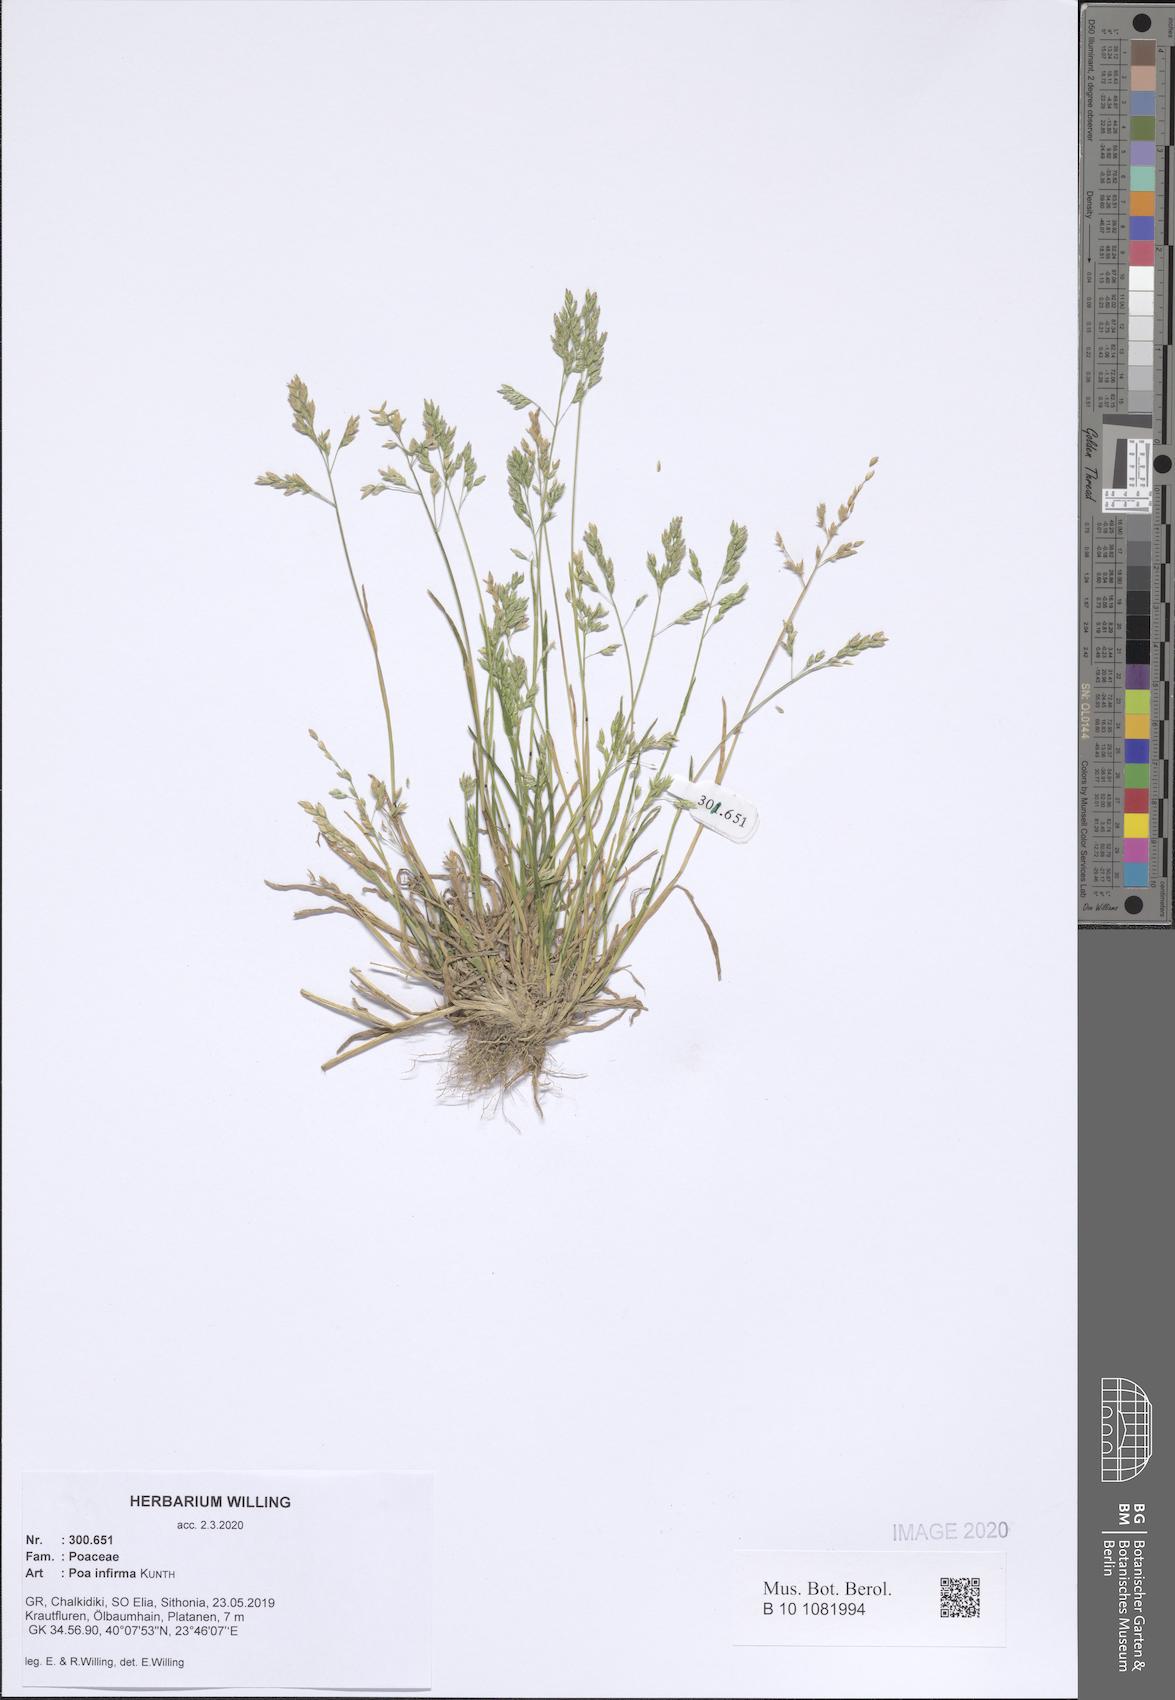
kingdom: Plantae
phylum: Tracheophyta
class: Liliopsida
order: Poales
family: Poaceae
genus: Poa
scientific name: Poa infirma
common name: Weak bluegrass
